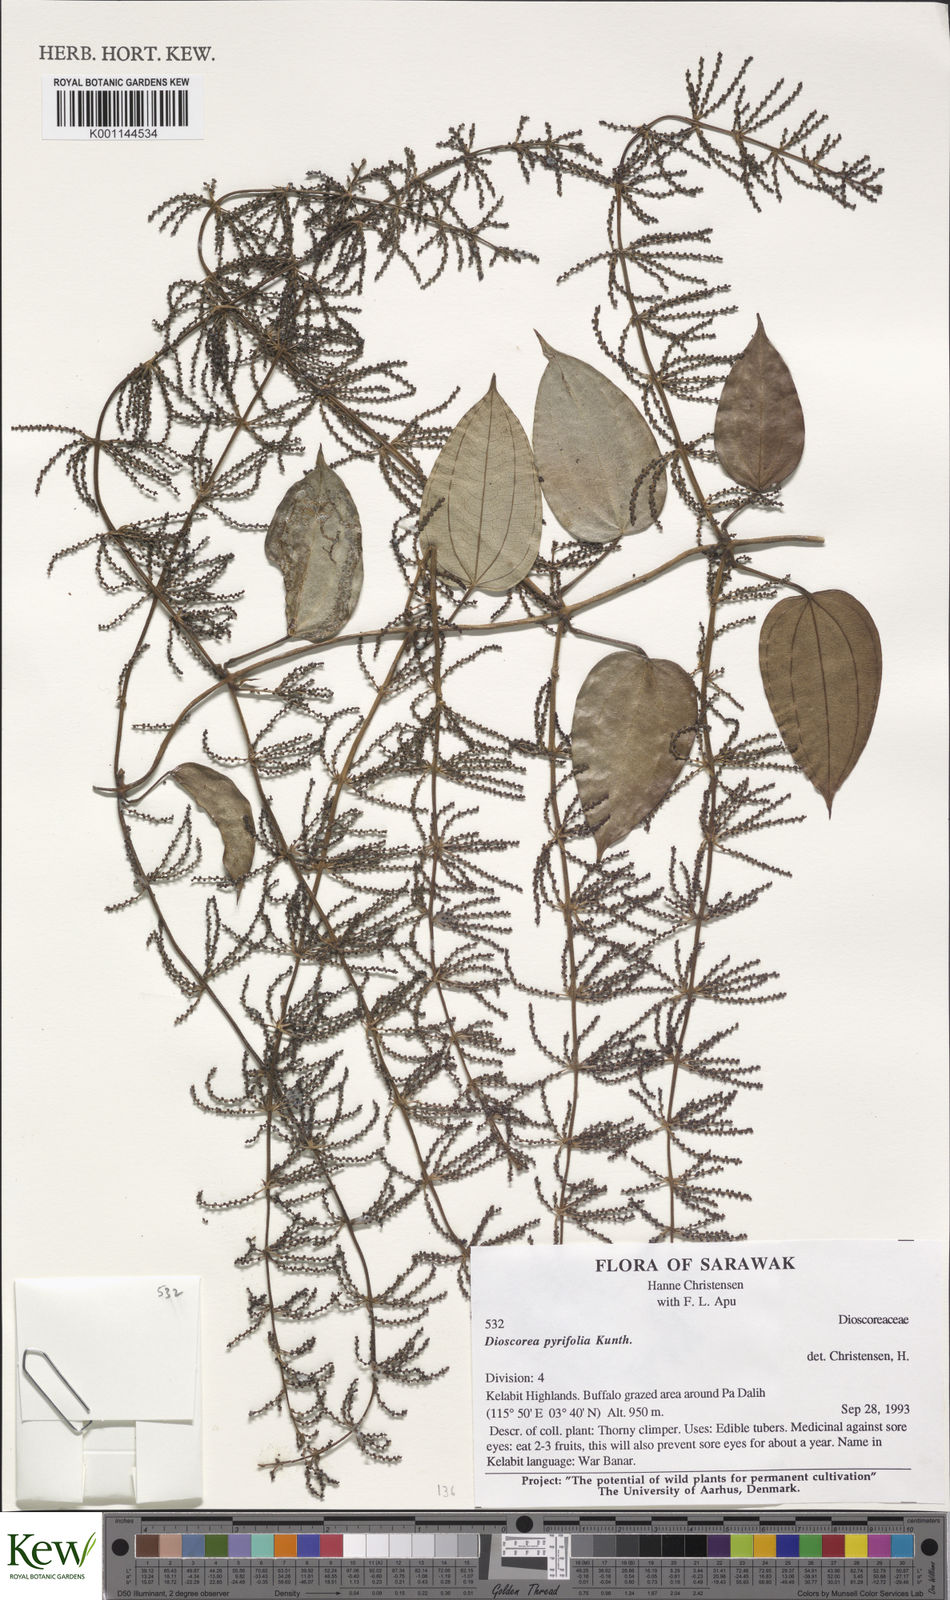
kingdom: Plantae
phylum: Tracheophyta
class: Liliopsida
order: Dioscoreales
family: Dioscoreaceae
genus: Dioscorea
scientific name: Dioscorea
